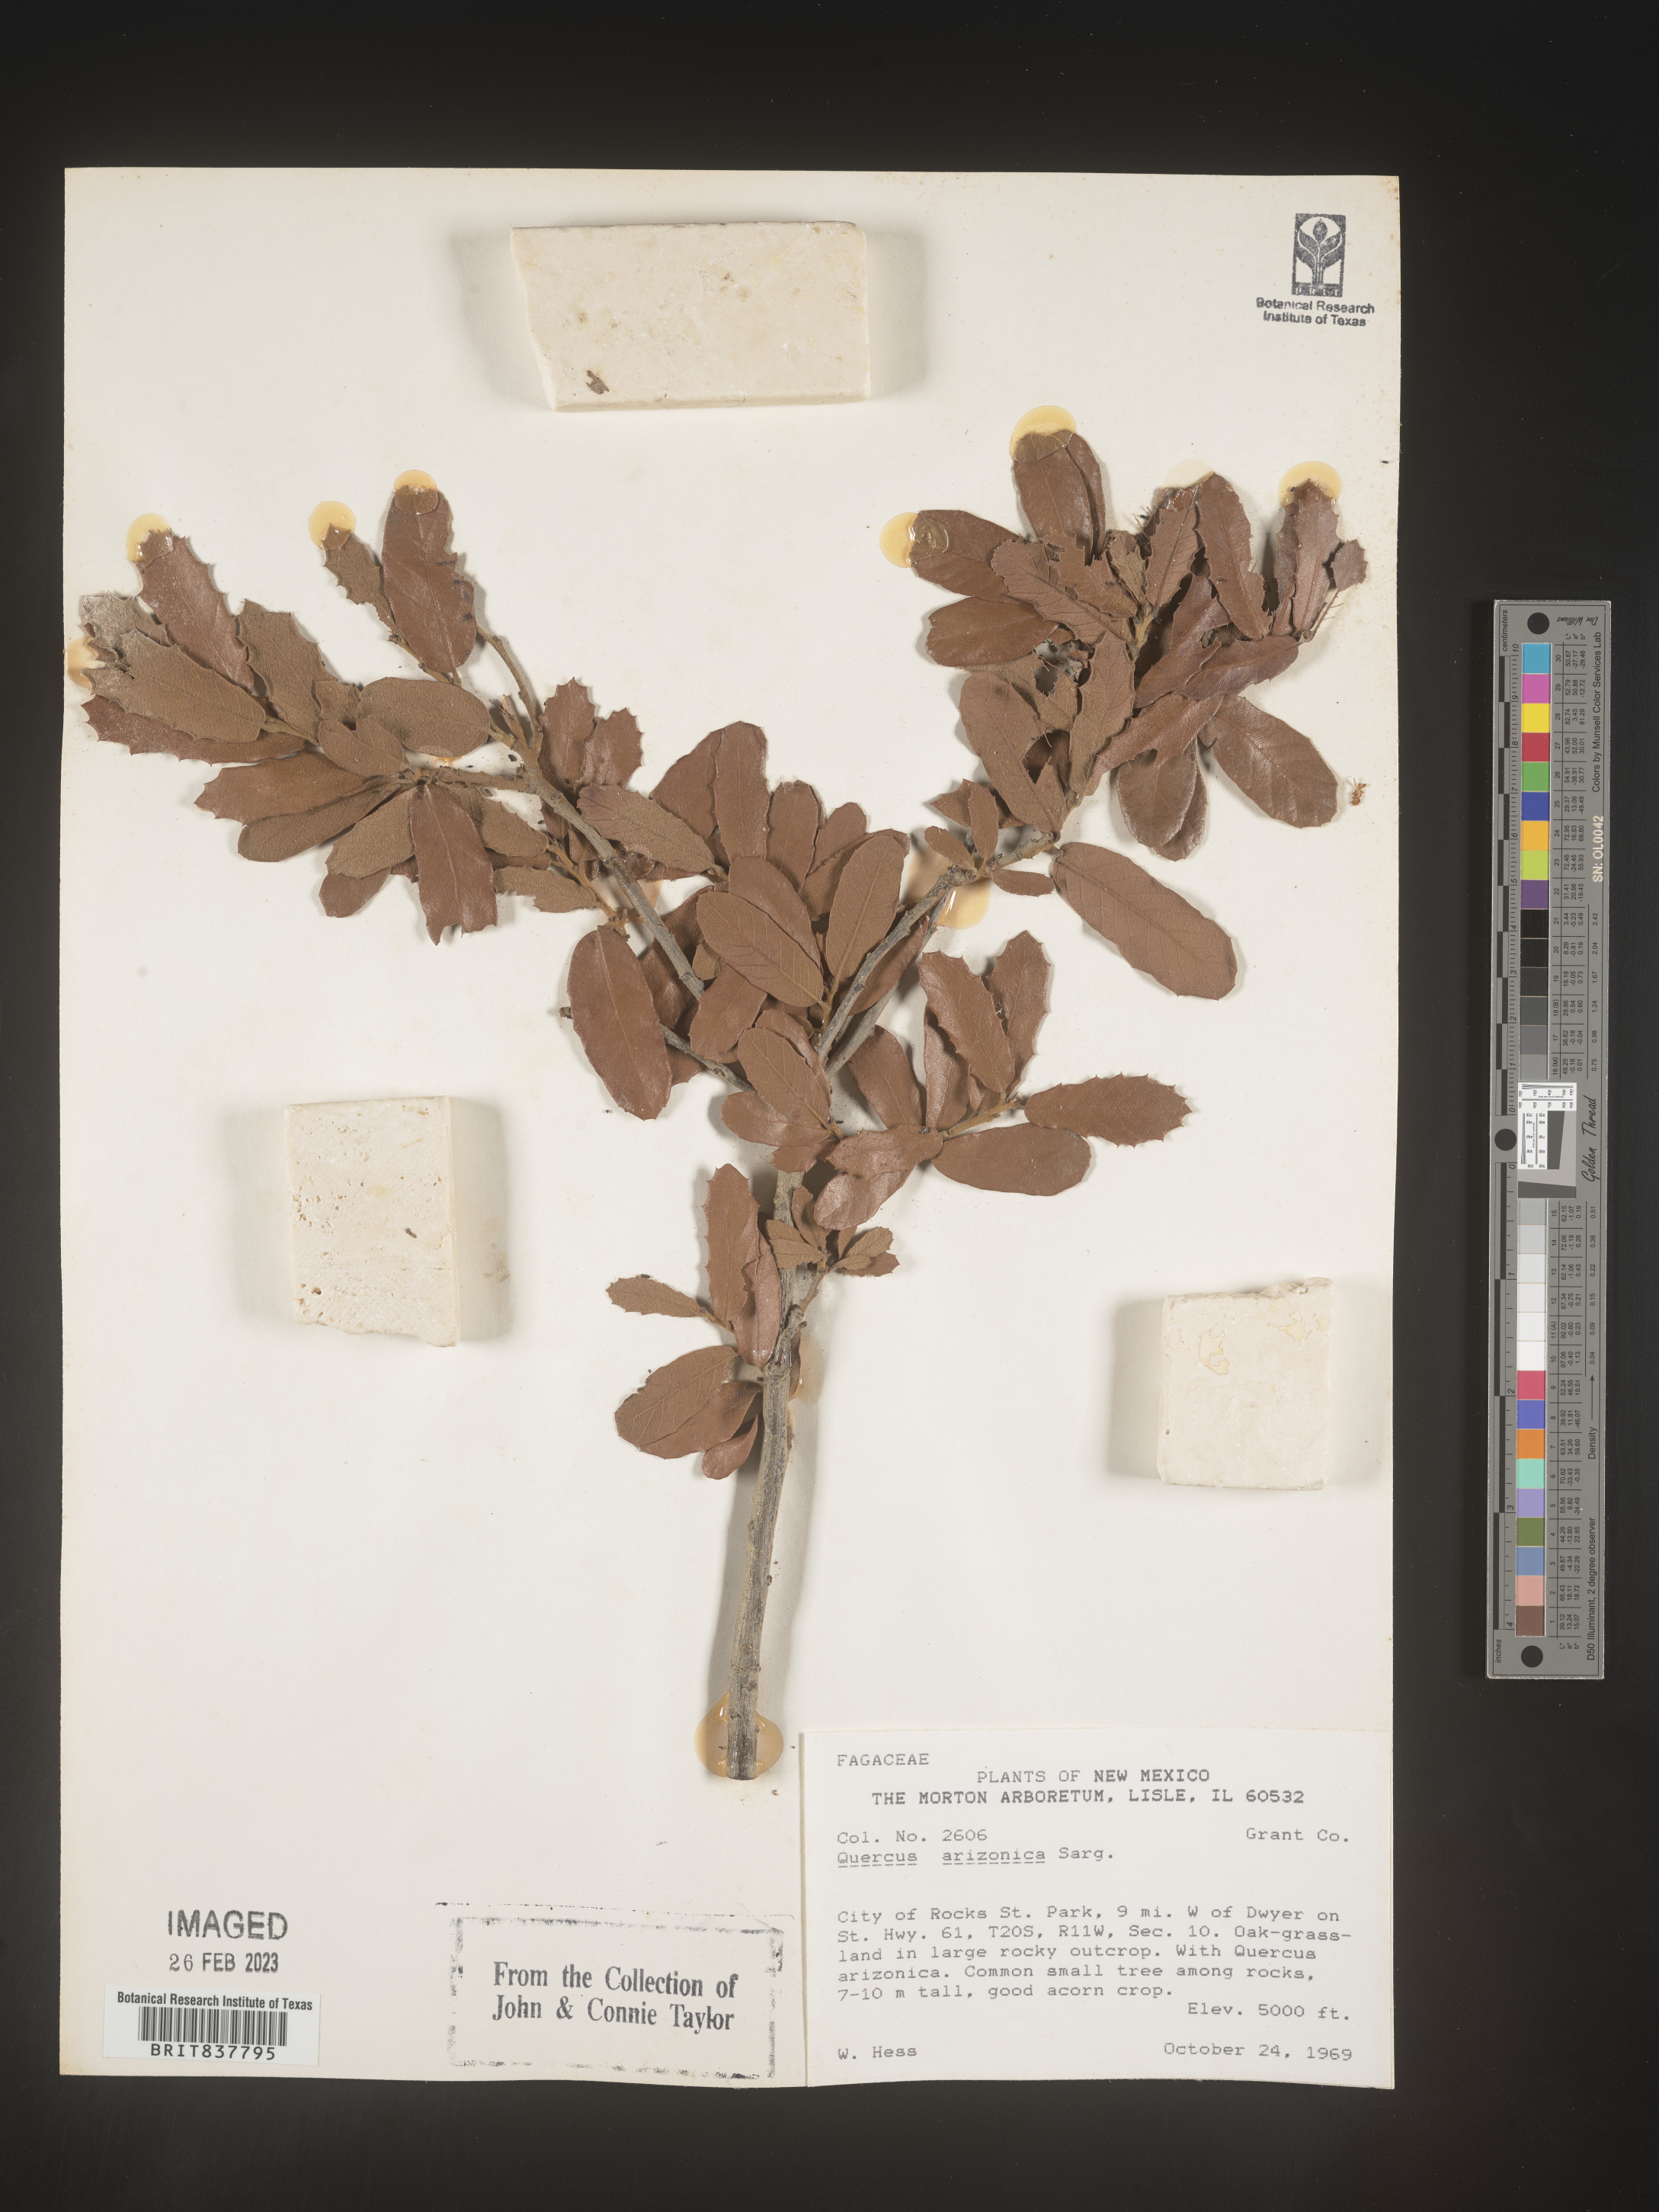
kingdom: Plantae
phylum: Tracheophyta
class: Magnoliopsida
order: Fagales
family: Fagaceae
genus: Quercus
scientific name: Quercus arizonica
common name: Arizona white oak
